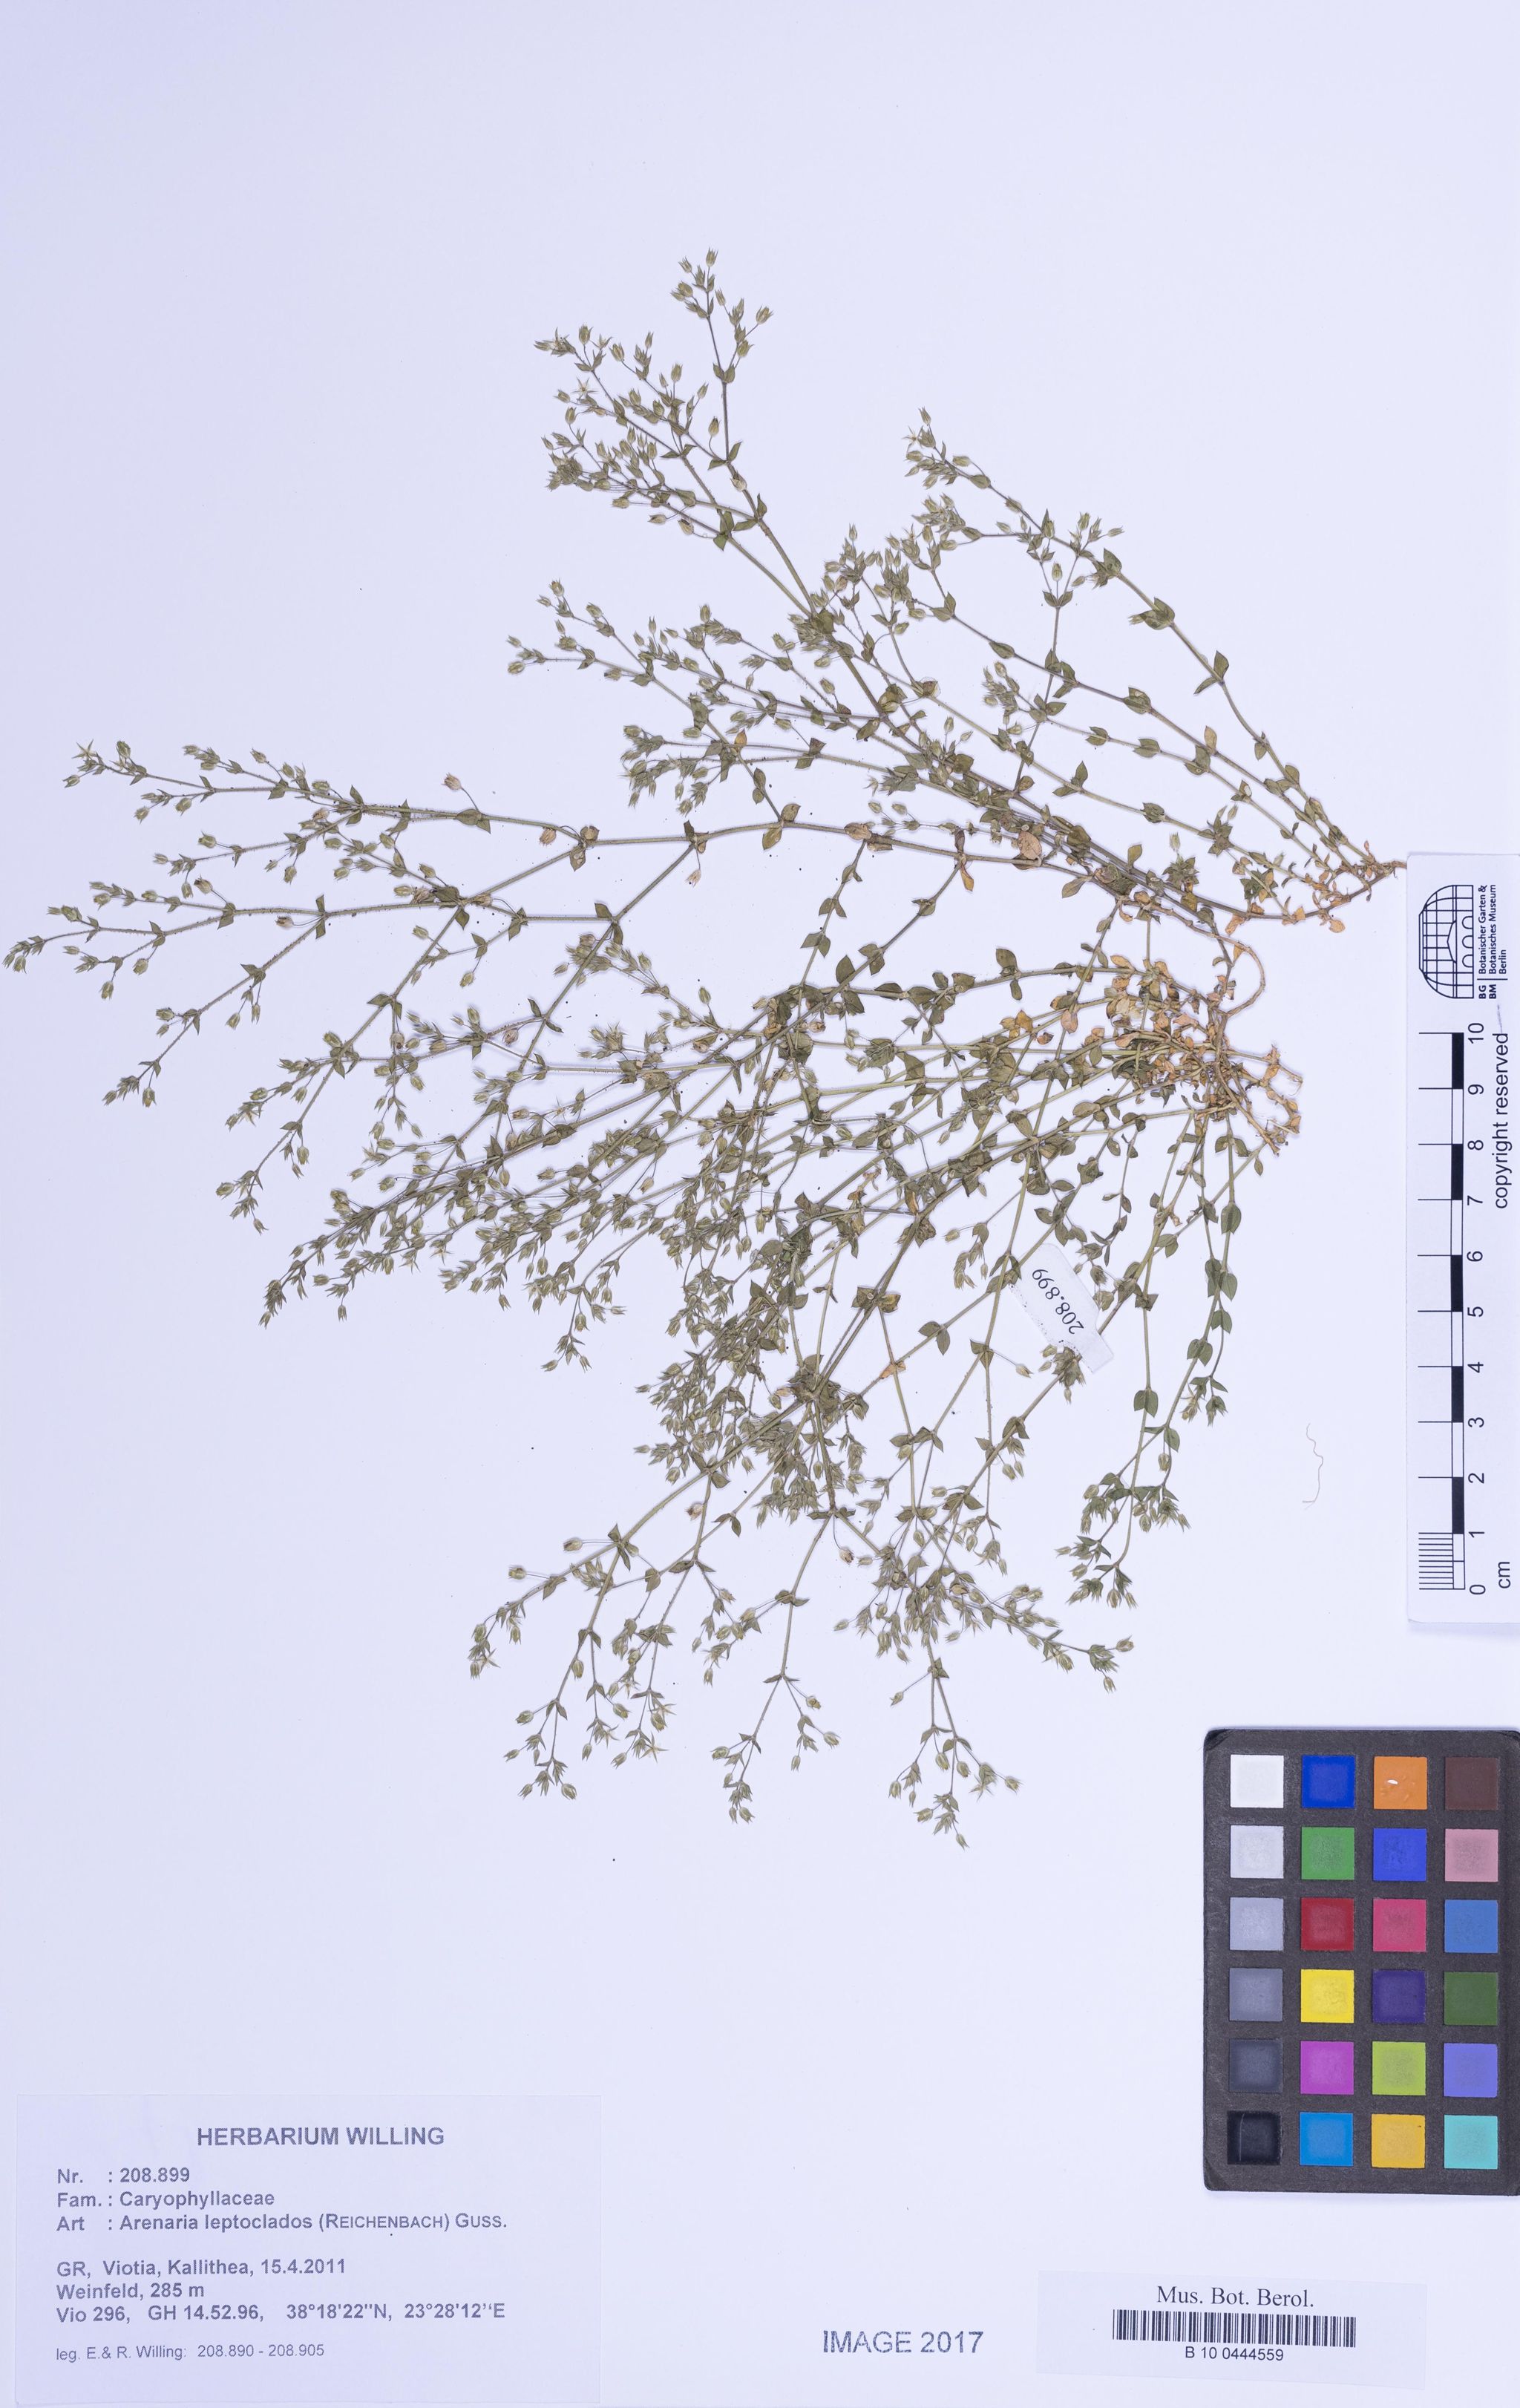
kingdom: Plantae
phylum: Tracheophyta
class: Magnoliopsida
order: Caryophyllales
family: Caryophyllaceae
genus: Arenaria
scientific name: Arenaria leptoclados
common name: Thyme-leaved sandwort
